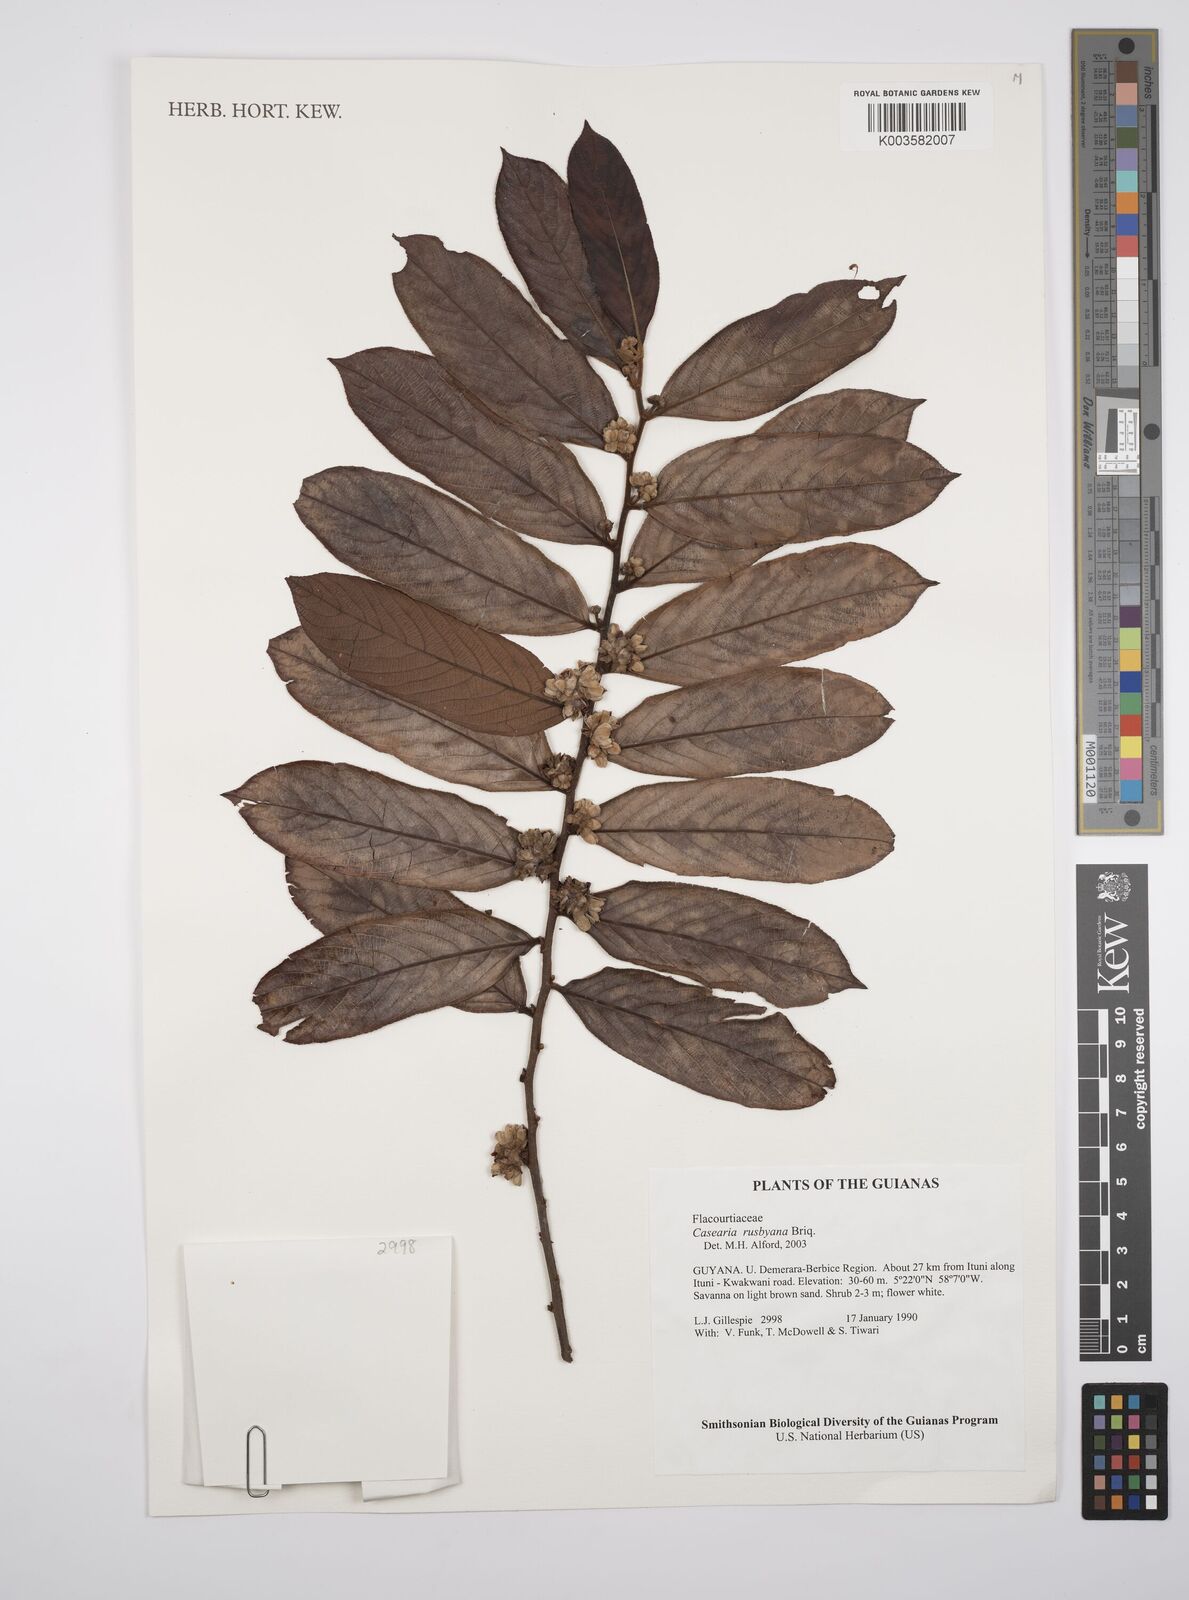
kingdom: Plantae
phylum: Tracheophyta
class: Magnoliopsida
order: Malpighiales
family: Salicaceae
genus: Casearia
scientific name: Casearia rusbyana
